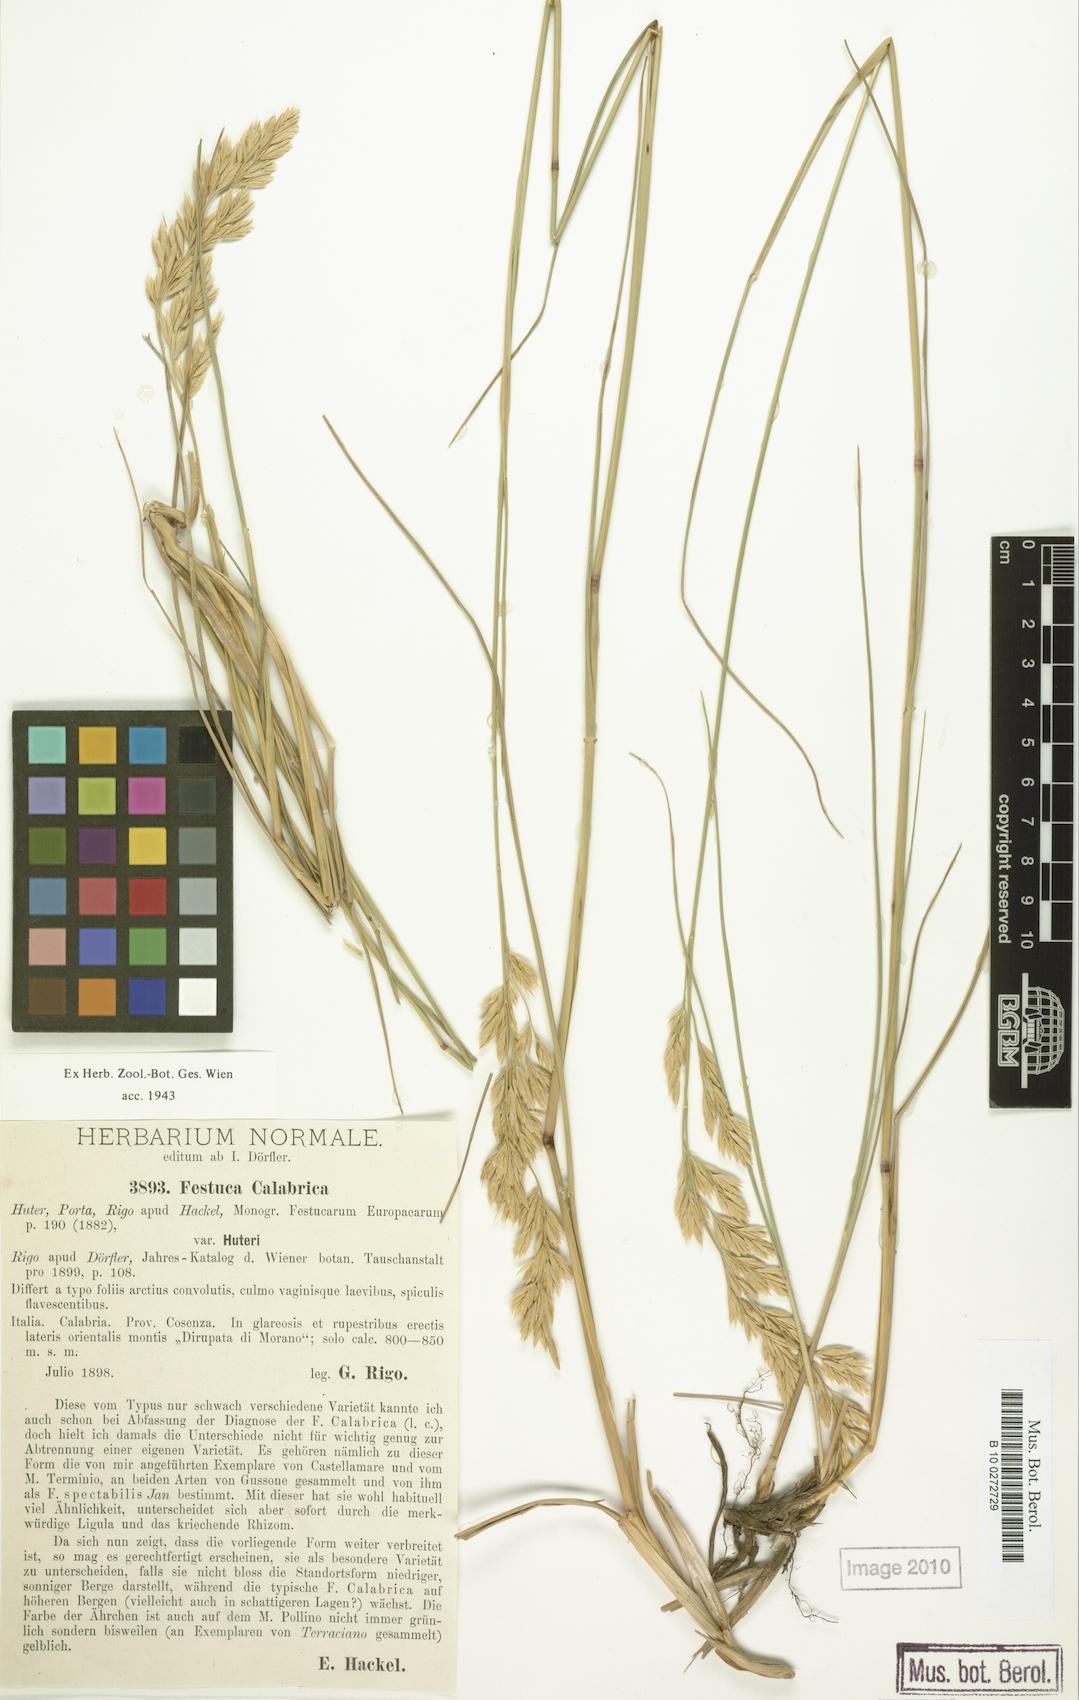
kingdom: Plantae
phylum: Tracheophyta
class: Liliopsida
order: Poales
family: Poaceae
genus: Festuca
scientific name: Festuca calabrica
